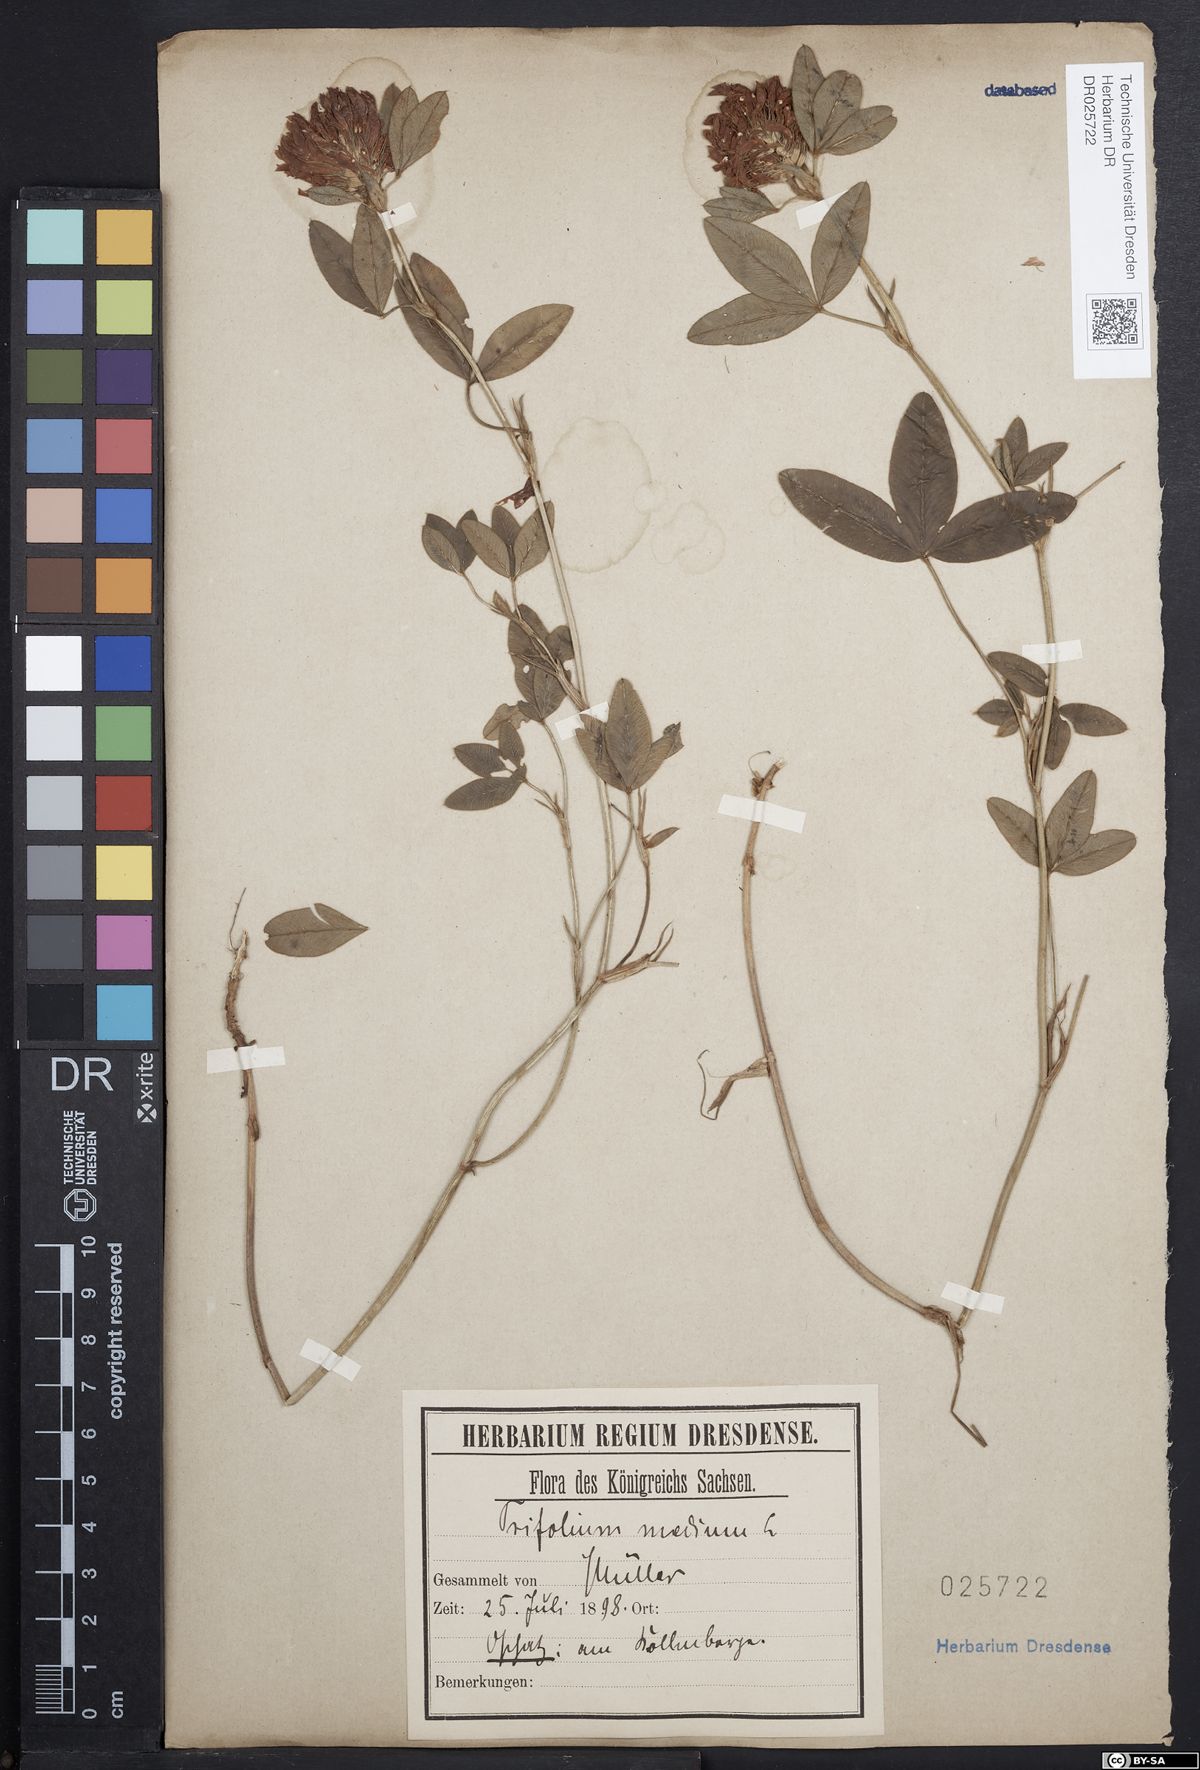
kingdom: Plantae
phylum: Tracheophyta
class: Magnoliopsida
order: Fabales
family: Fabaceae
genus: Trifolium
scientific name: Trifolium medium
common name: Zigzag clover
